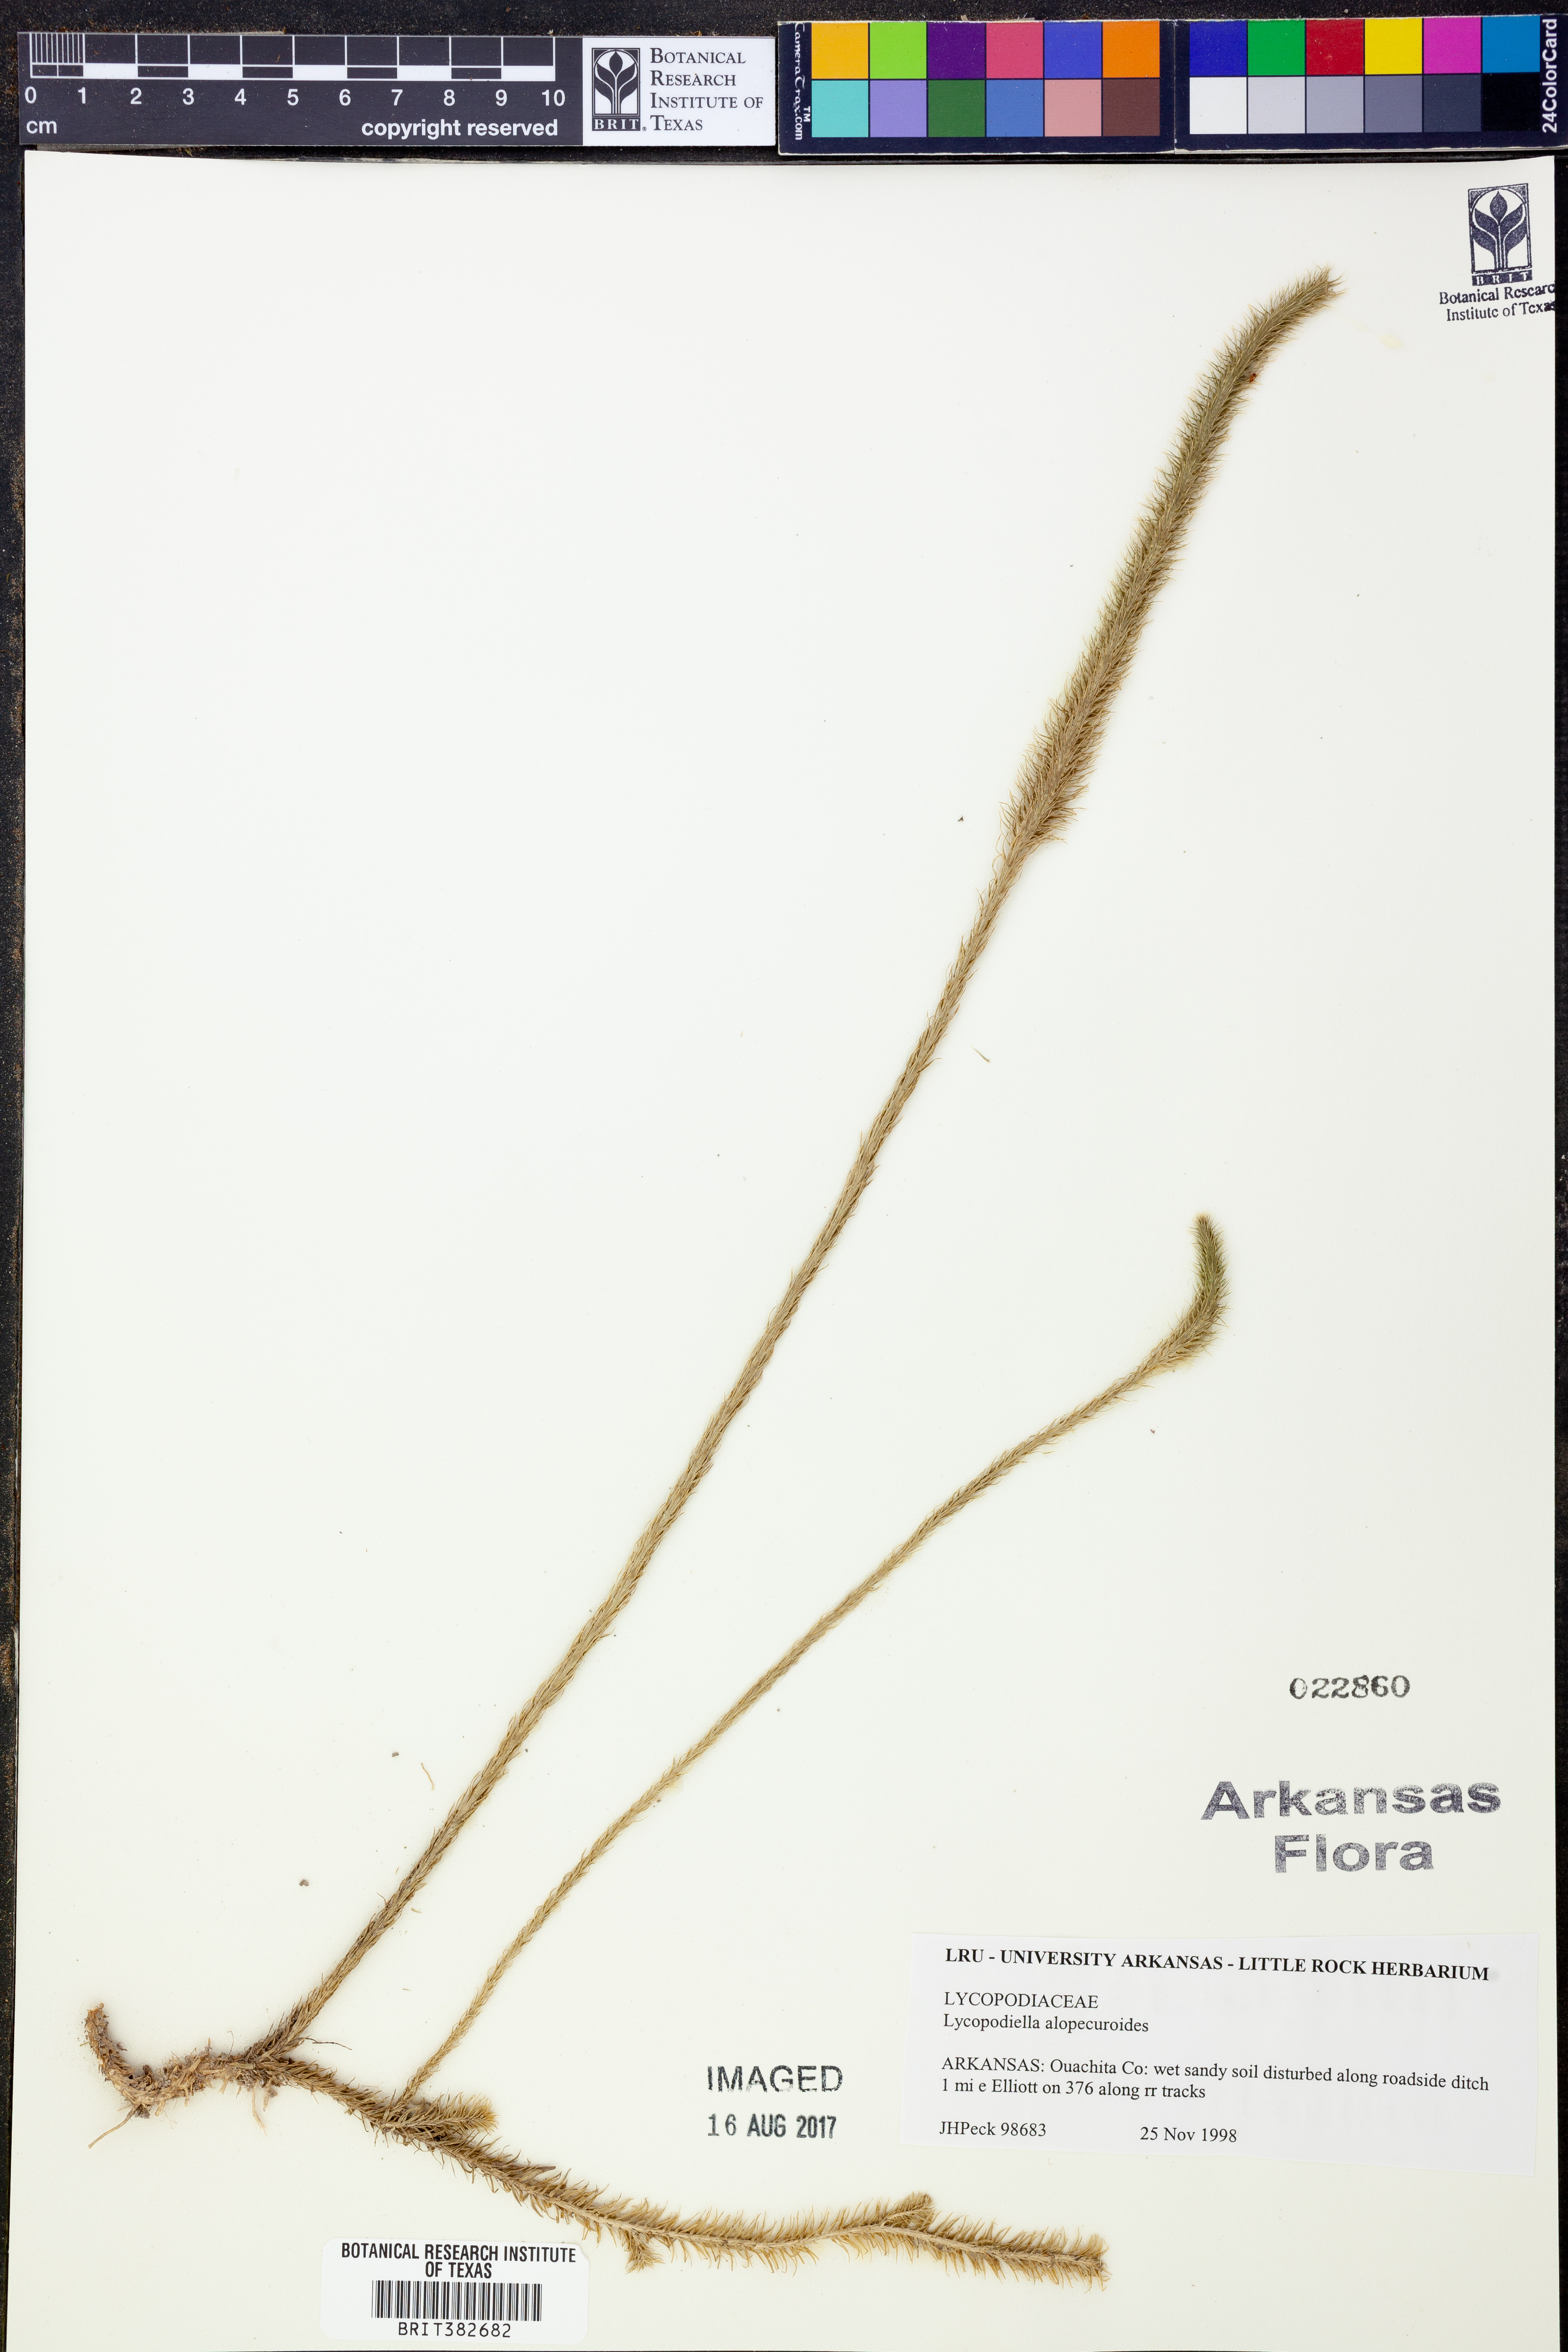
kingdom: Plantae
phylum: Tracheophyta
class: Lycopodiopsida
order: Lycopodiales
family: Lycopodiaceae
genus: Lycopodiella
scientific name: Lycopodiella alopecuroides
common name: Foxtail clubmoss
